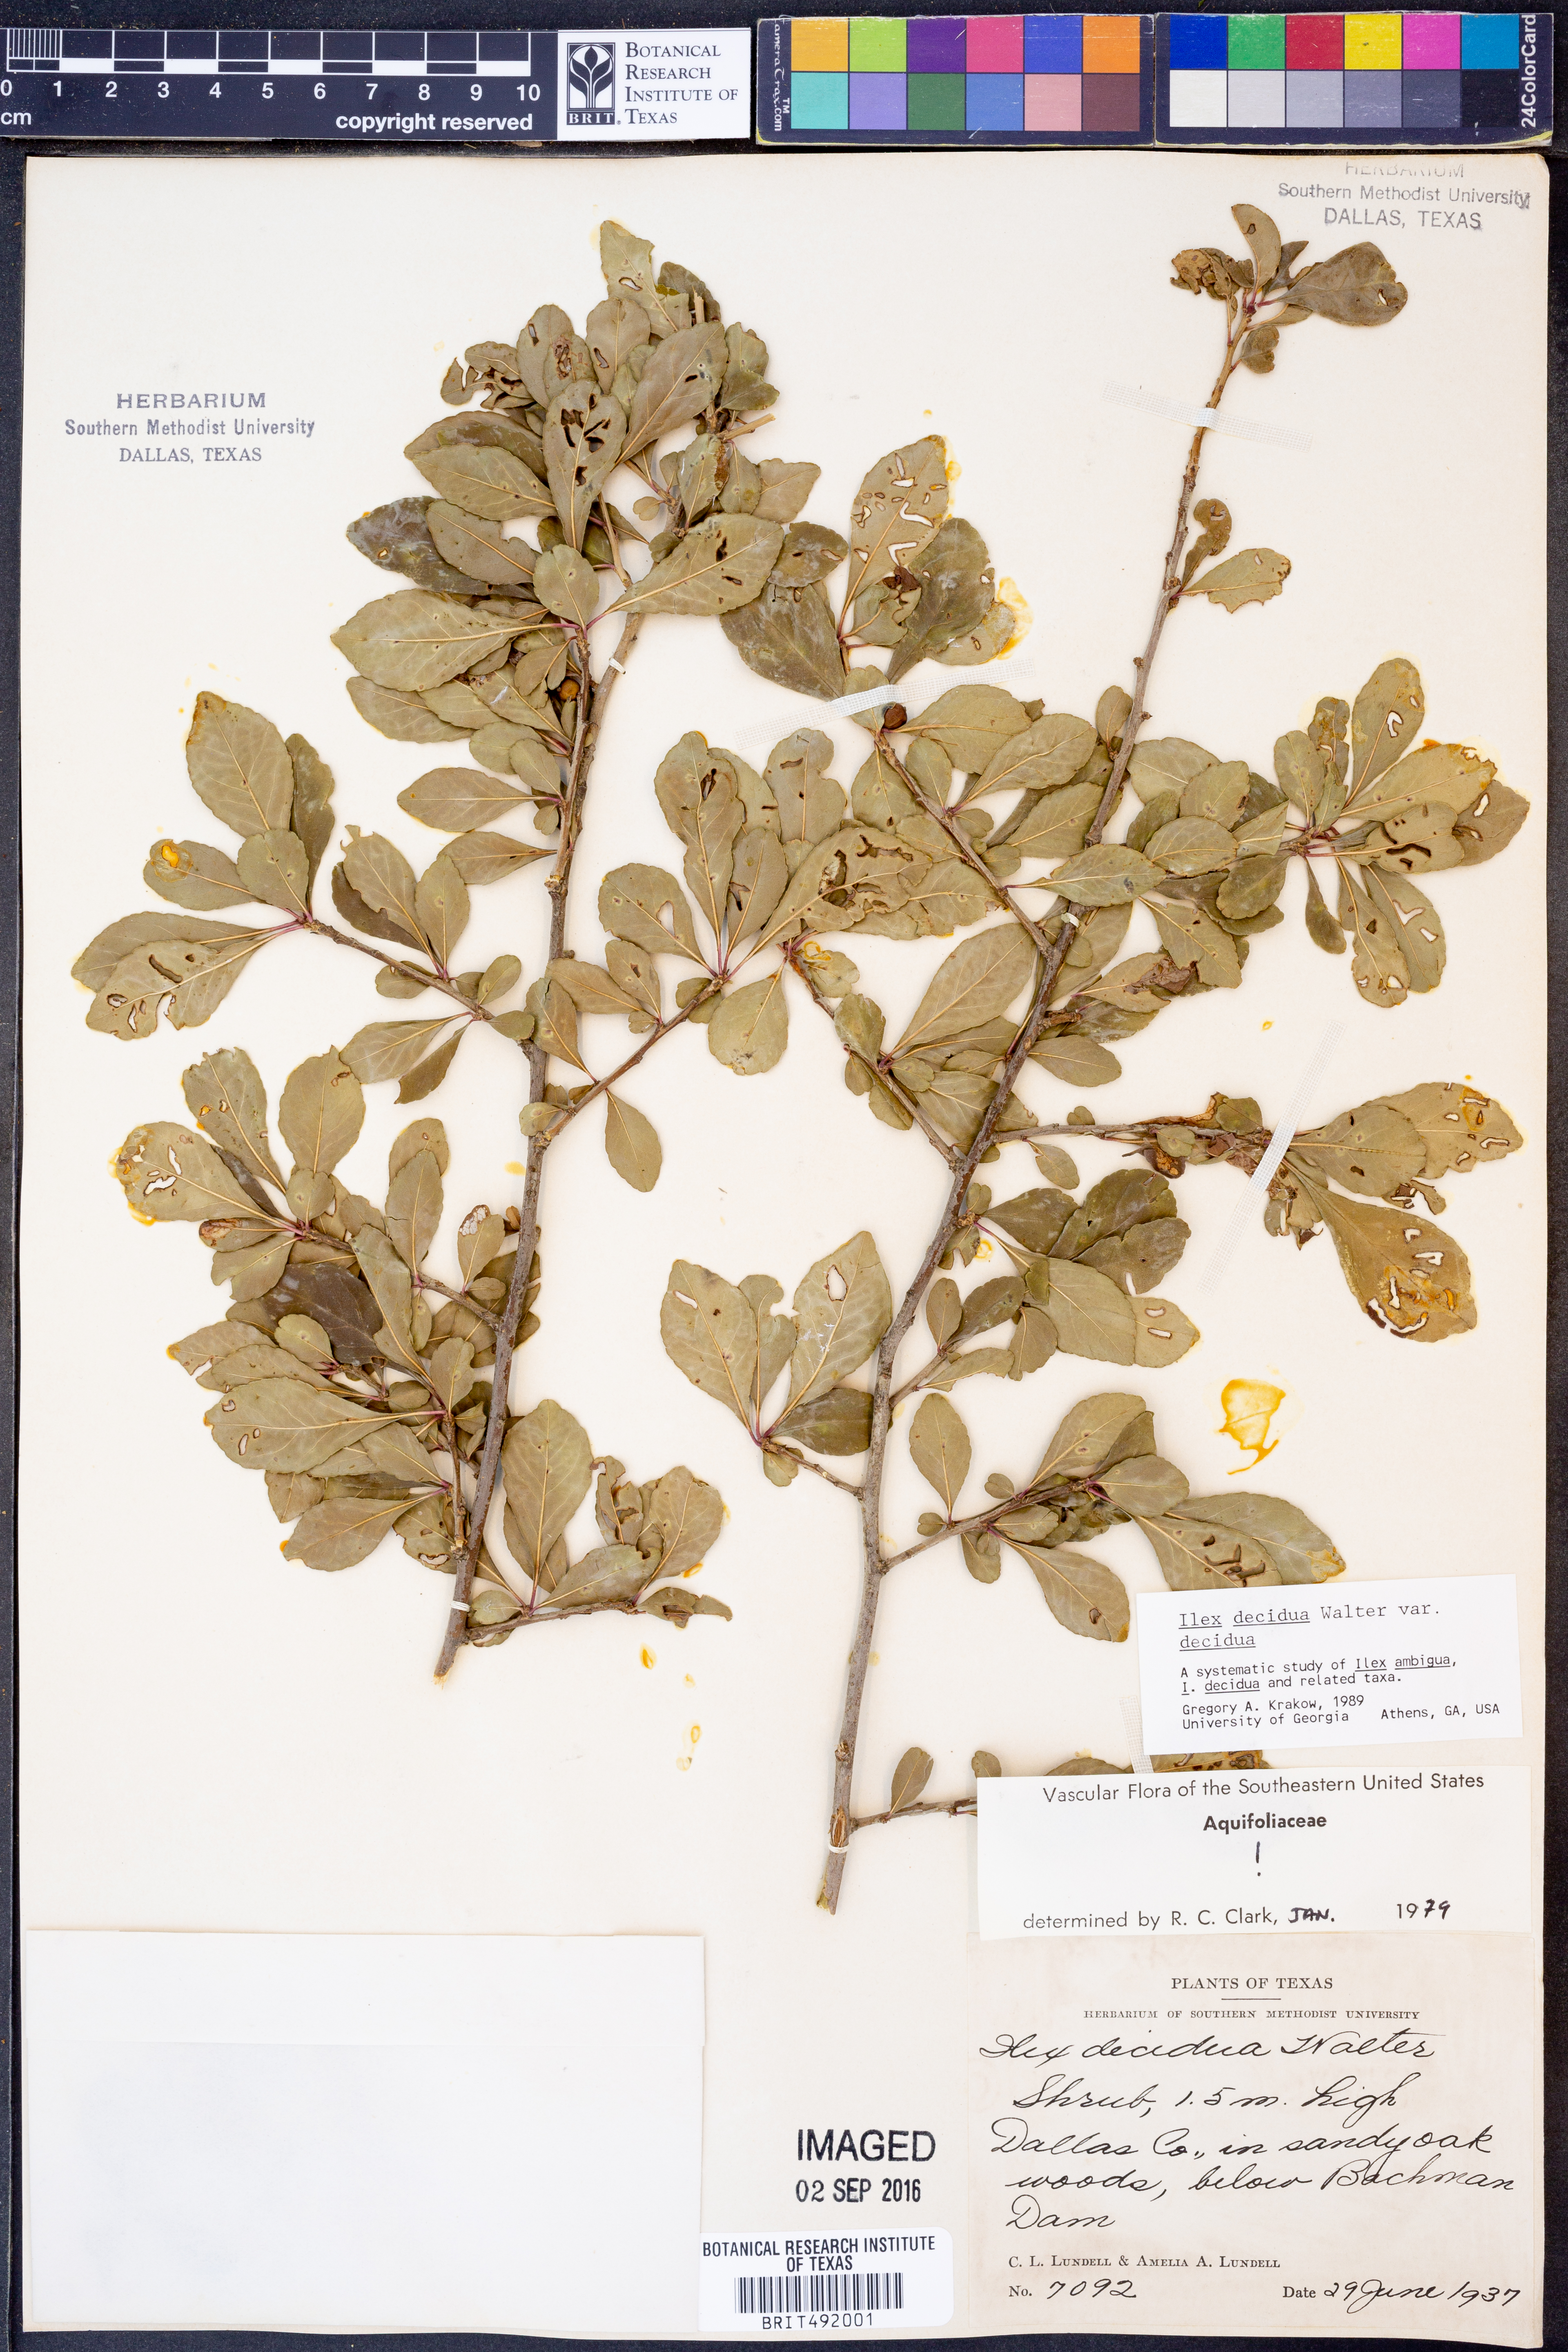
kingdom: Plantae
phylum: Tracheophyta
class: Magnoliopsida
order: Aquifoliales
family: Aquifoliaceae
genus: Ilex
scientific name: Ilex decidua
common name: Possum-haw
